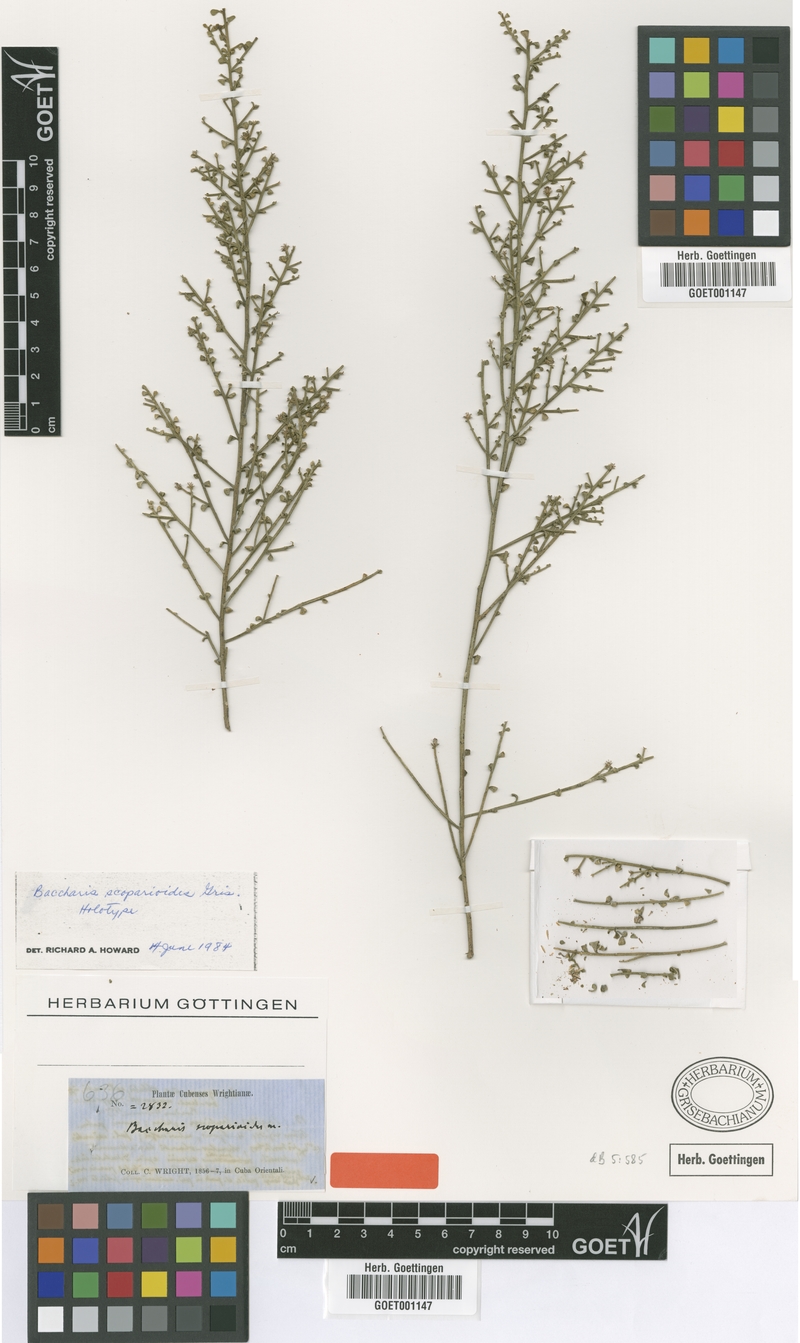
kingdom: Plantae
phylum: Tracheophyta
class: Magnoliopsida
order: Asterales
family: Asteraceae
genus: Baccharis
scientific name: Baccharis scoparioides
